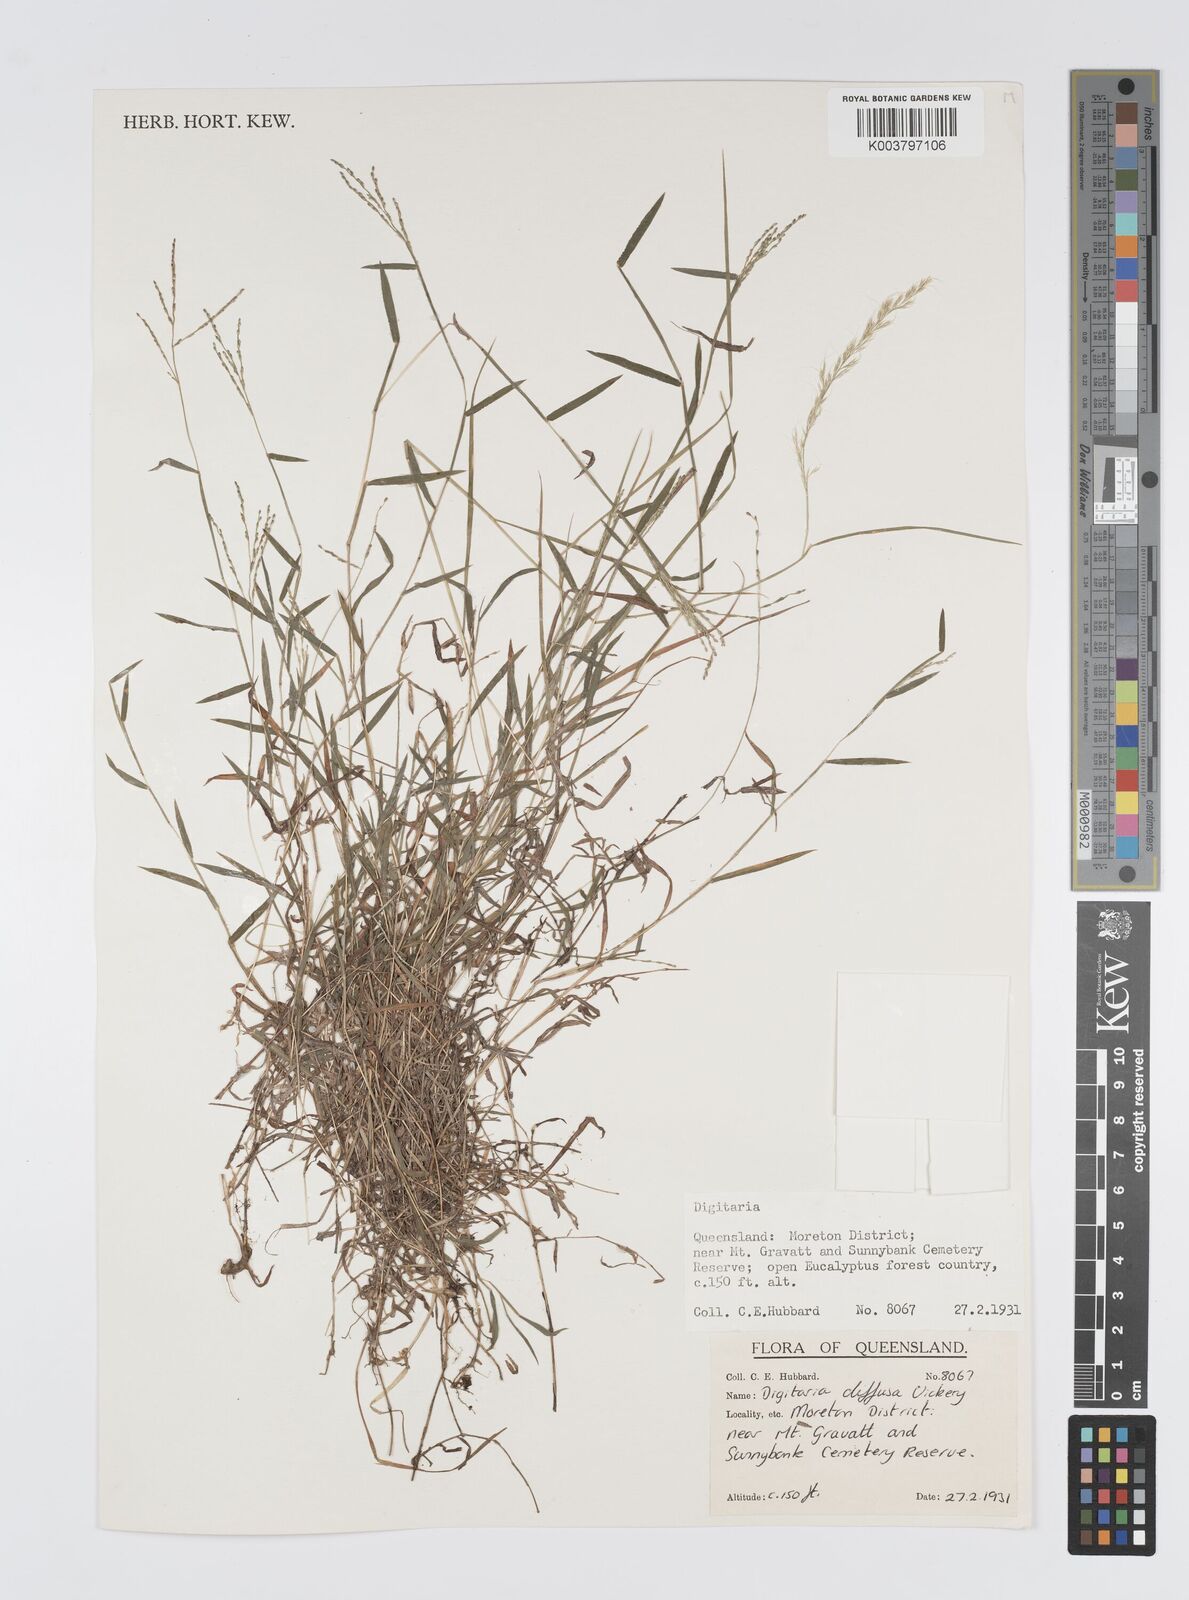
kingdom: Plantae
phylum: Tracheophyta
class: Liliopsida
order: Poales
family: Poaceae
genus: Digitaria
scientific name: Digitaria diffusa
